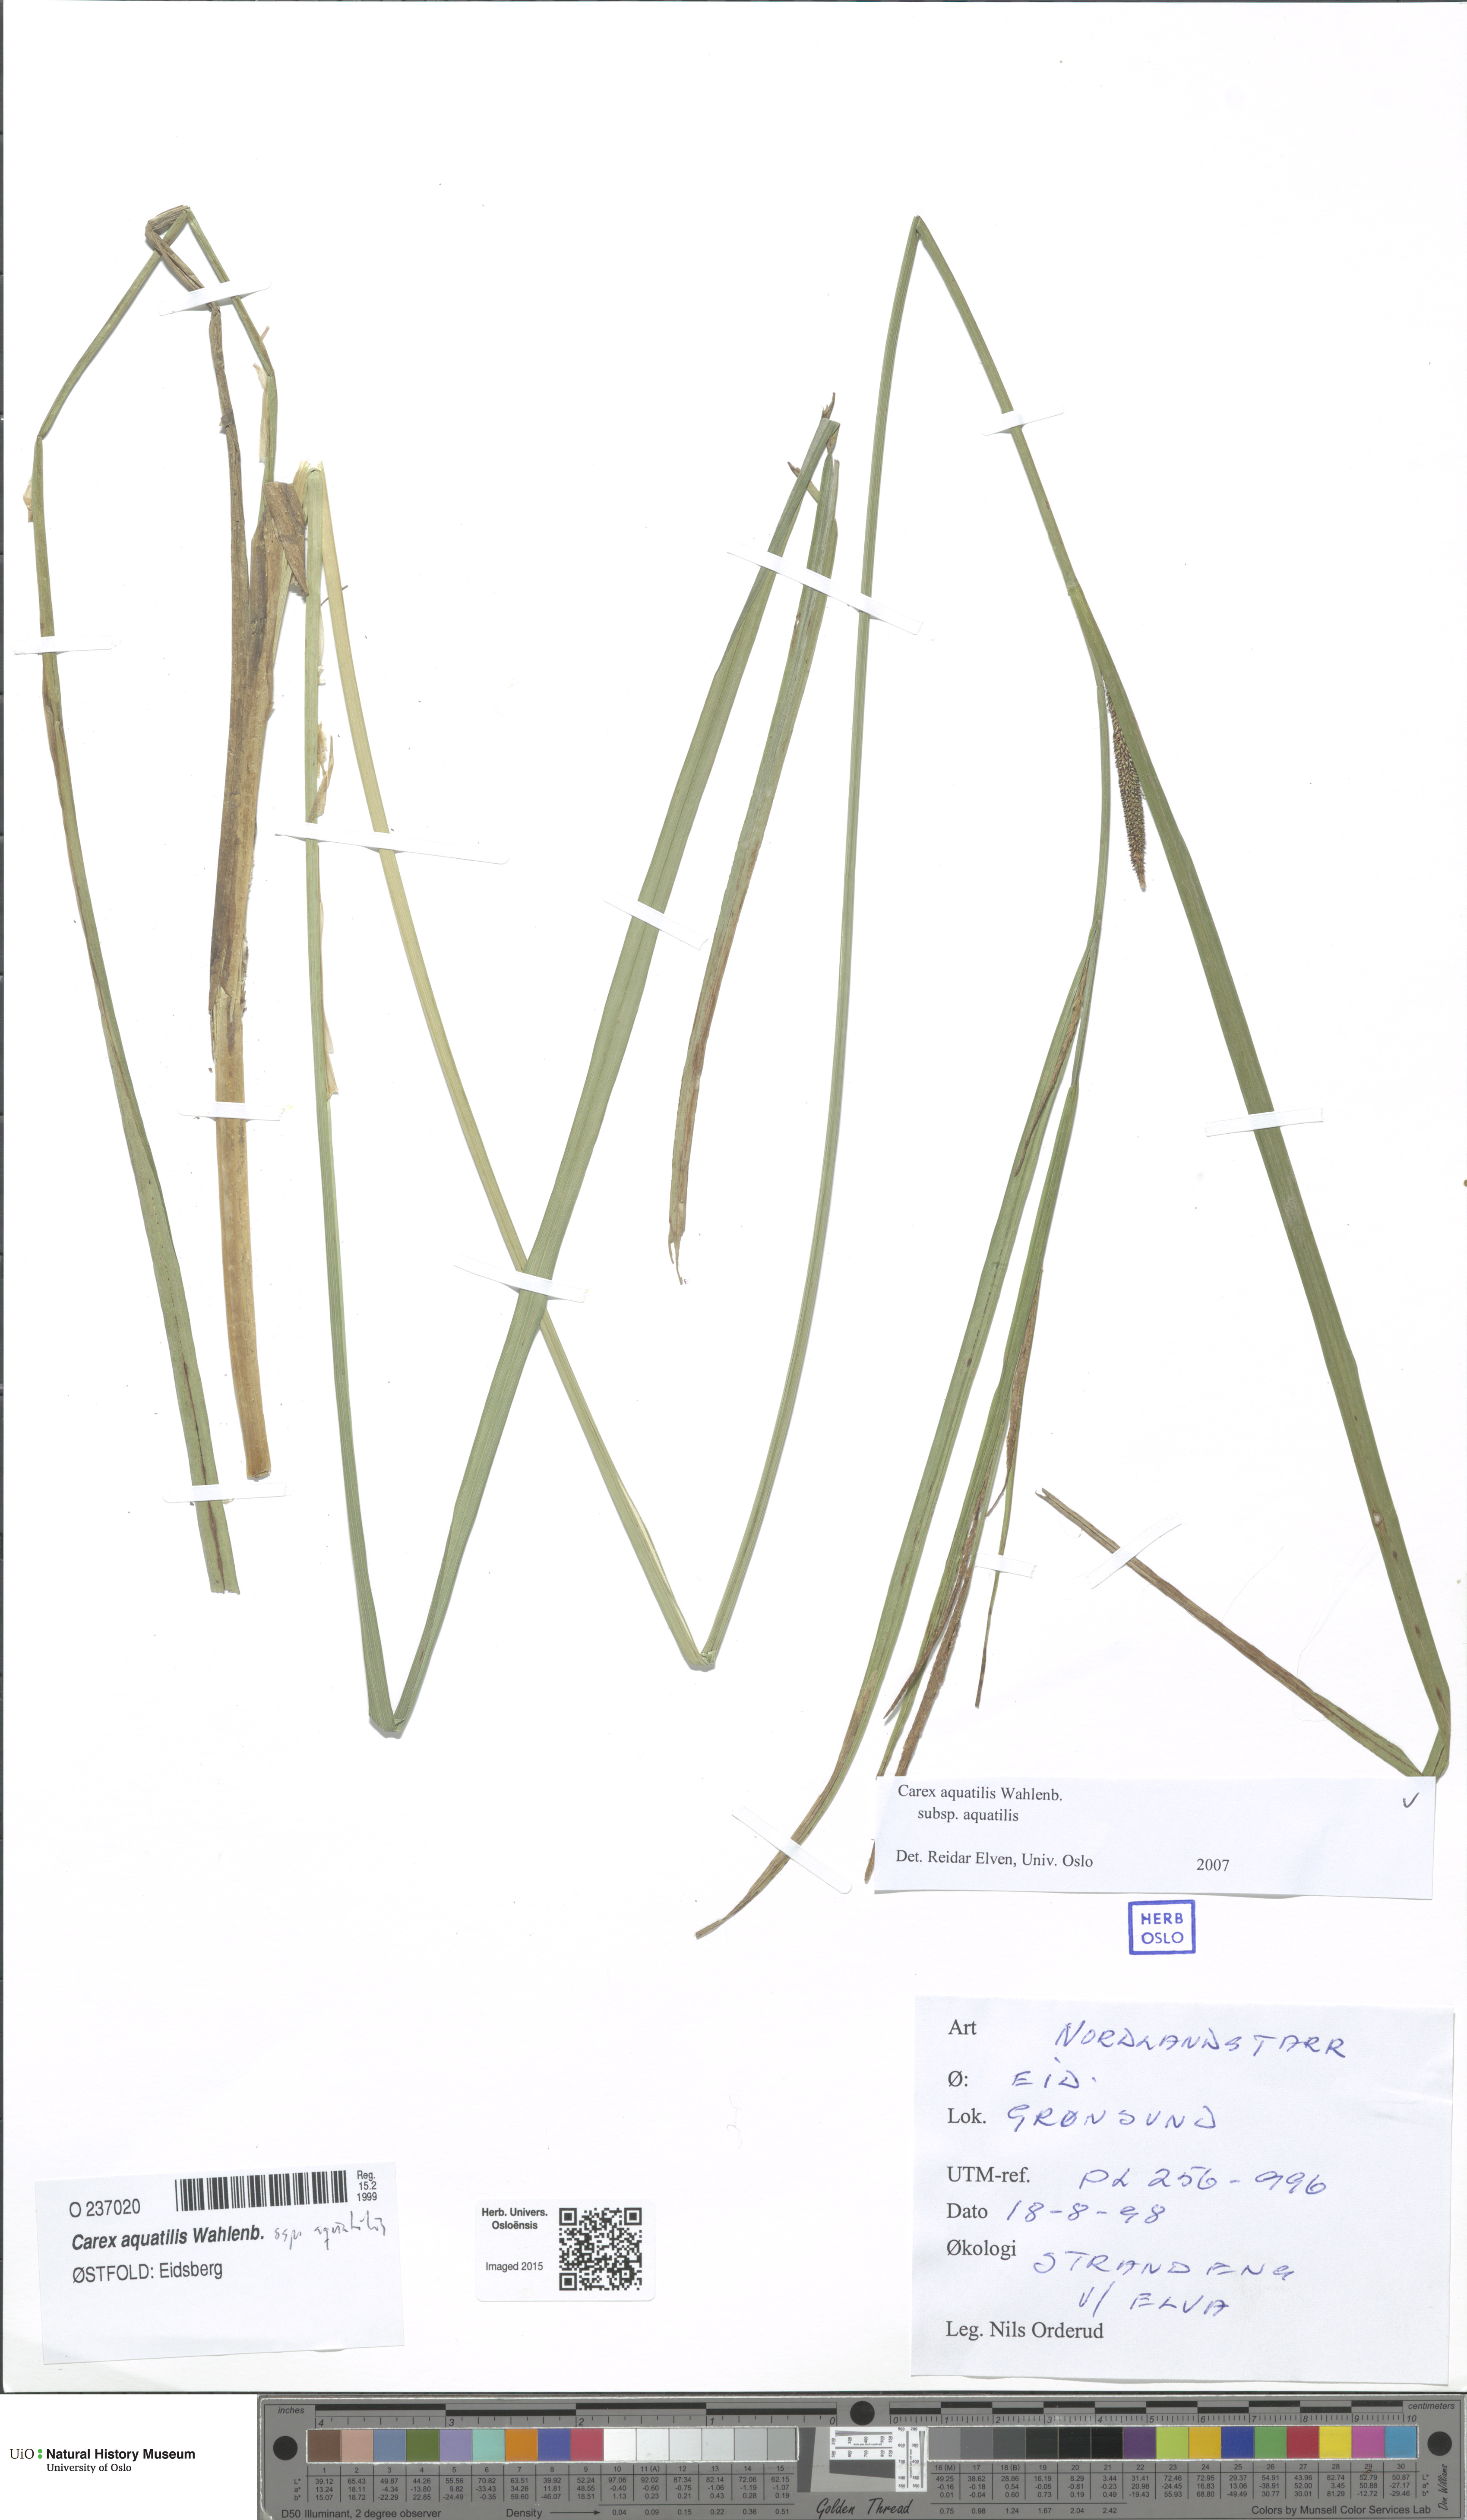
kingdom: Plantae
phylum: Tracheophyta
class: Liliopsida
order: Poales
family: Cyperaceae
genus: Carex
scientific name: Carex aquatilis
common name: Water sedge
